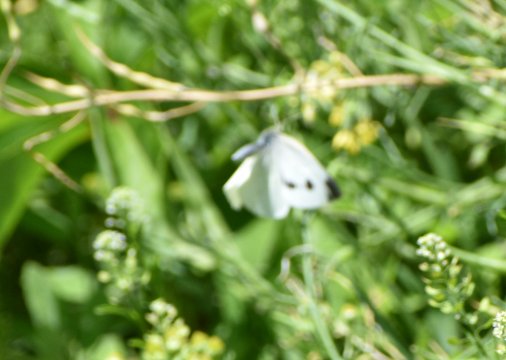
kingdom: Animalia
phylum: Arthropoda
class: Insecta
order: Lepidoptera
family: Pieridae
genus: Pieris
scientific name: Pieris rapae
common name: Cabbage White
